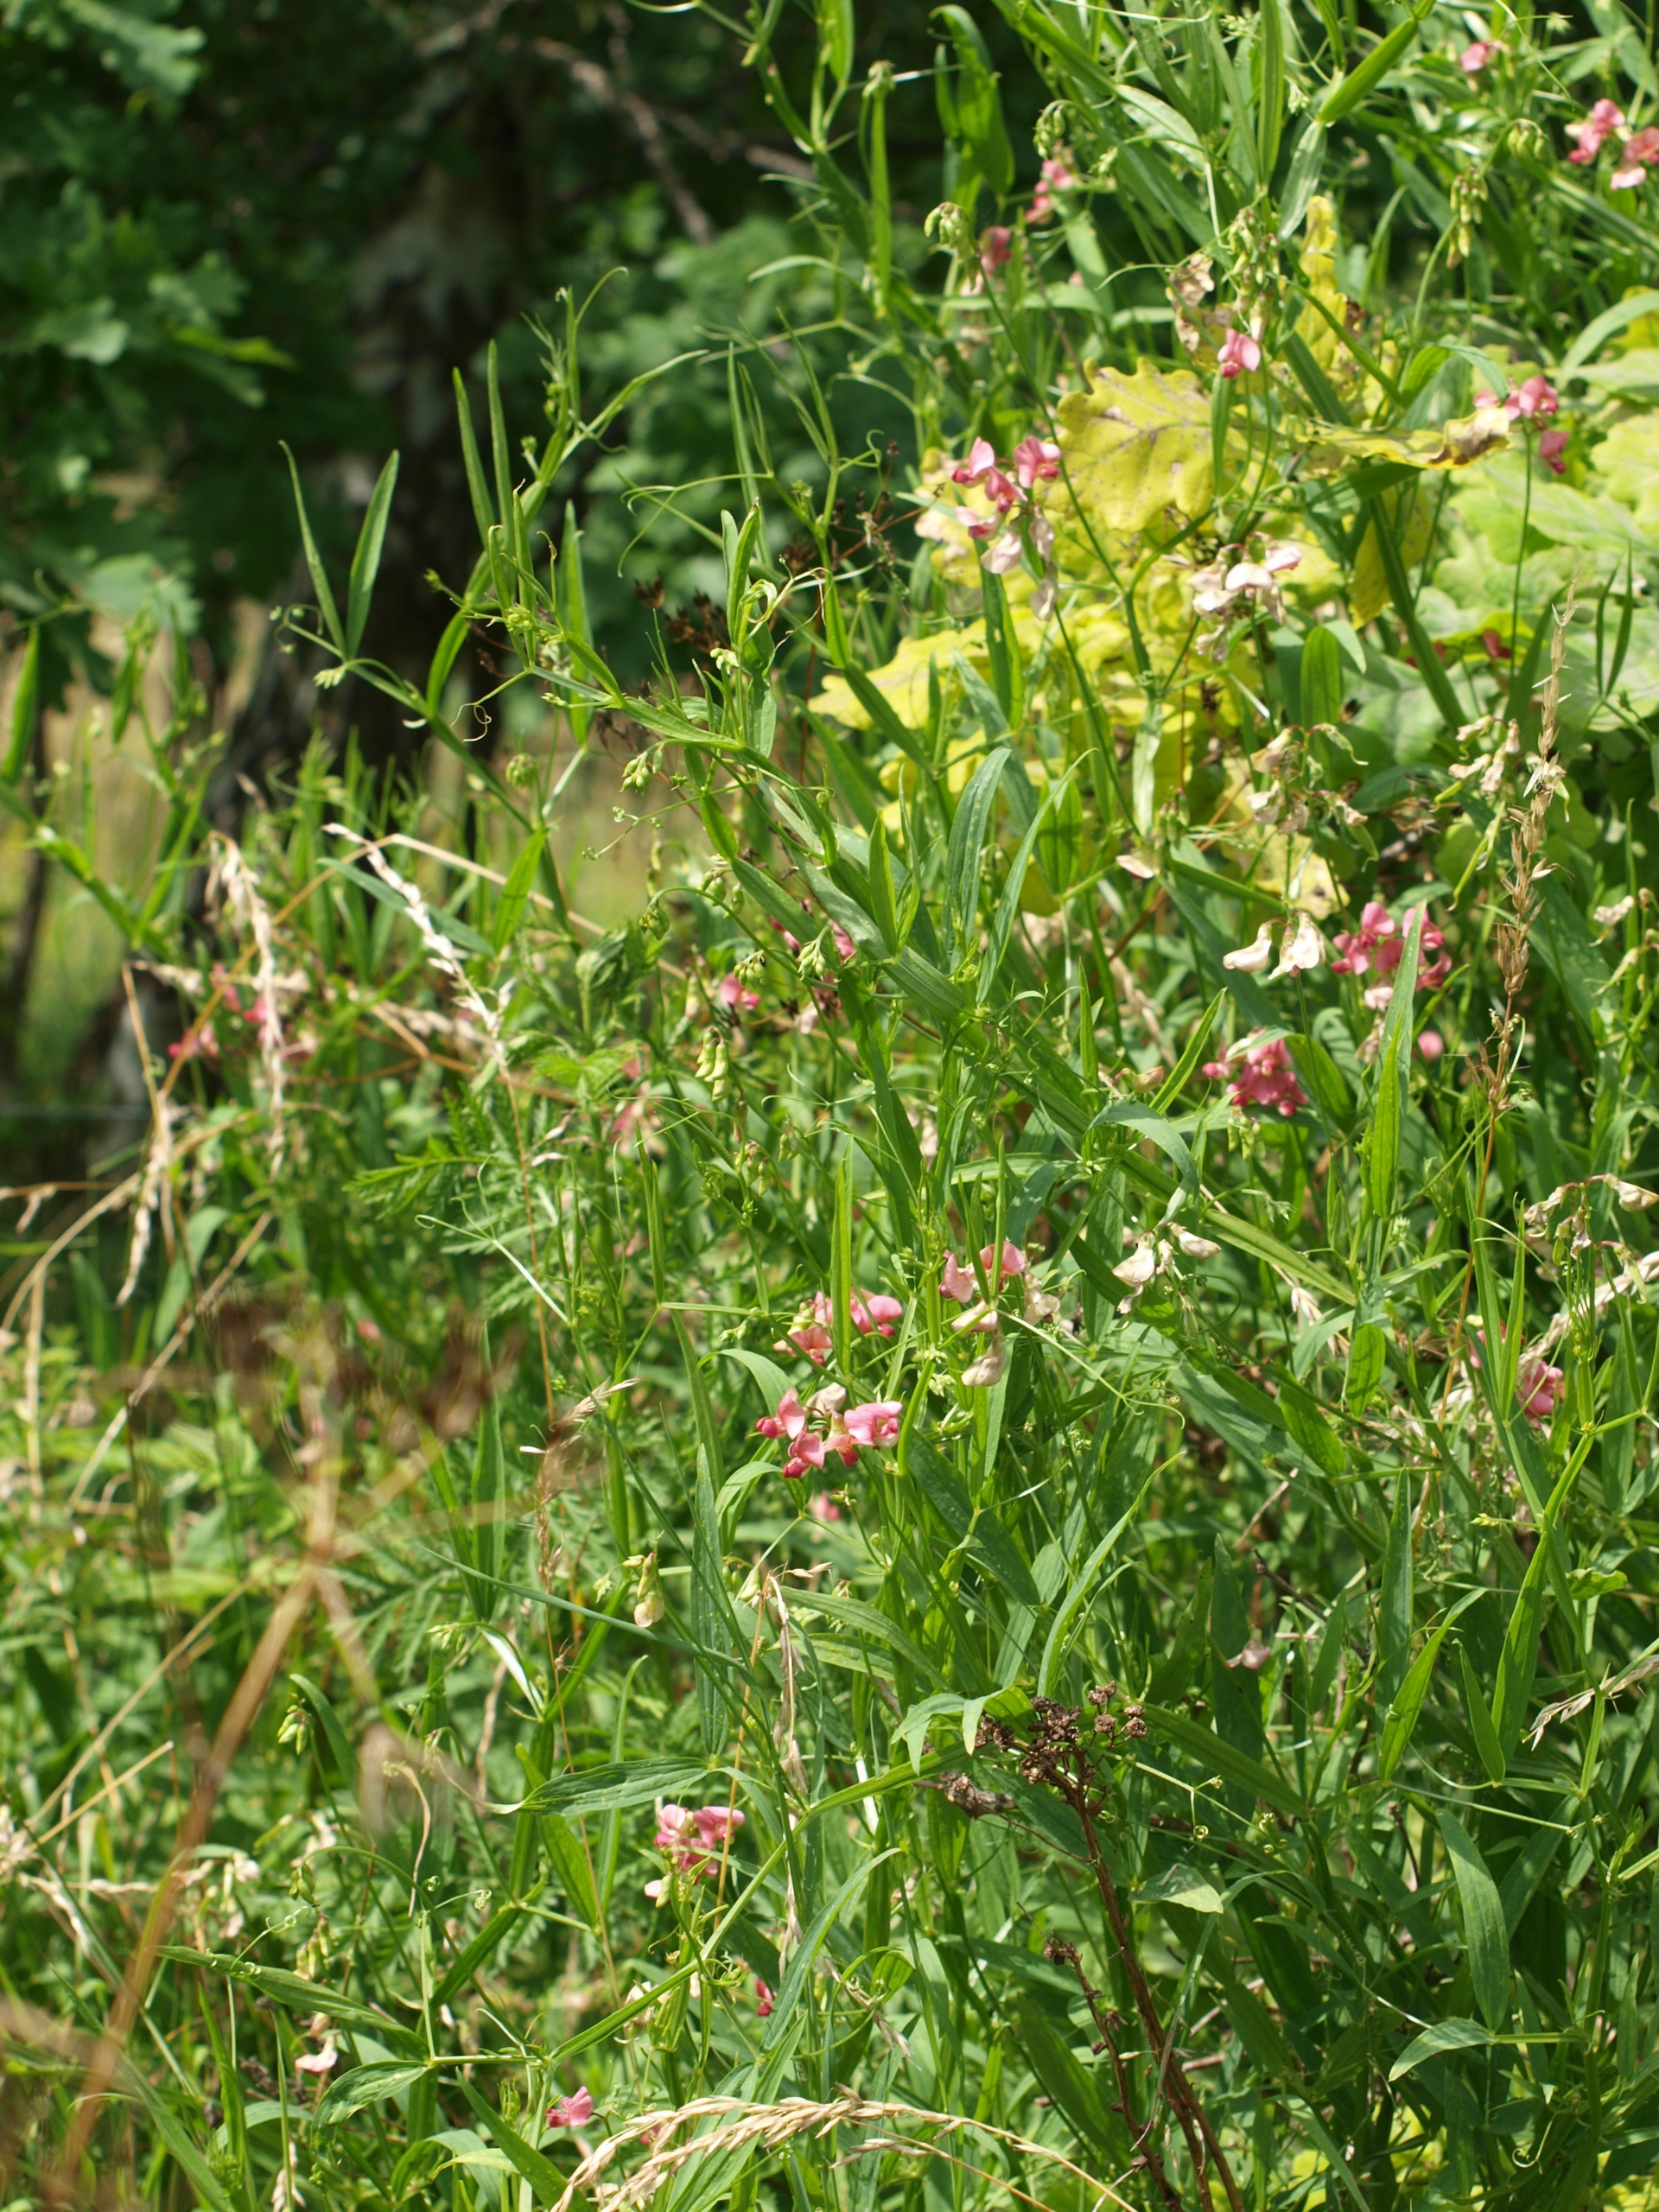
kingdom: Plantae
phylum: Tracheophyta
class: Magnoliopsida
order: Fabales
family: Fabaceae
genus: Lathyrus
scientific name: Lathyrus sylvestris
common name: Skov-fladbælg
